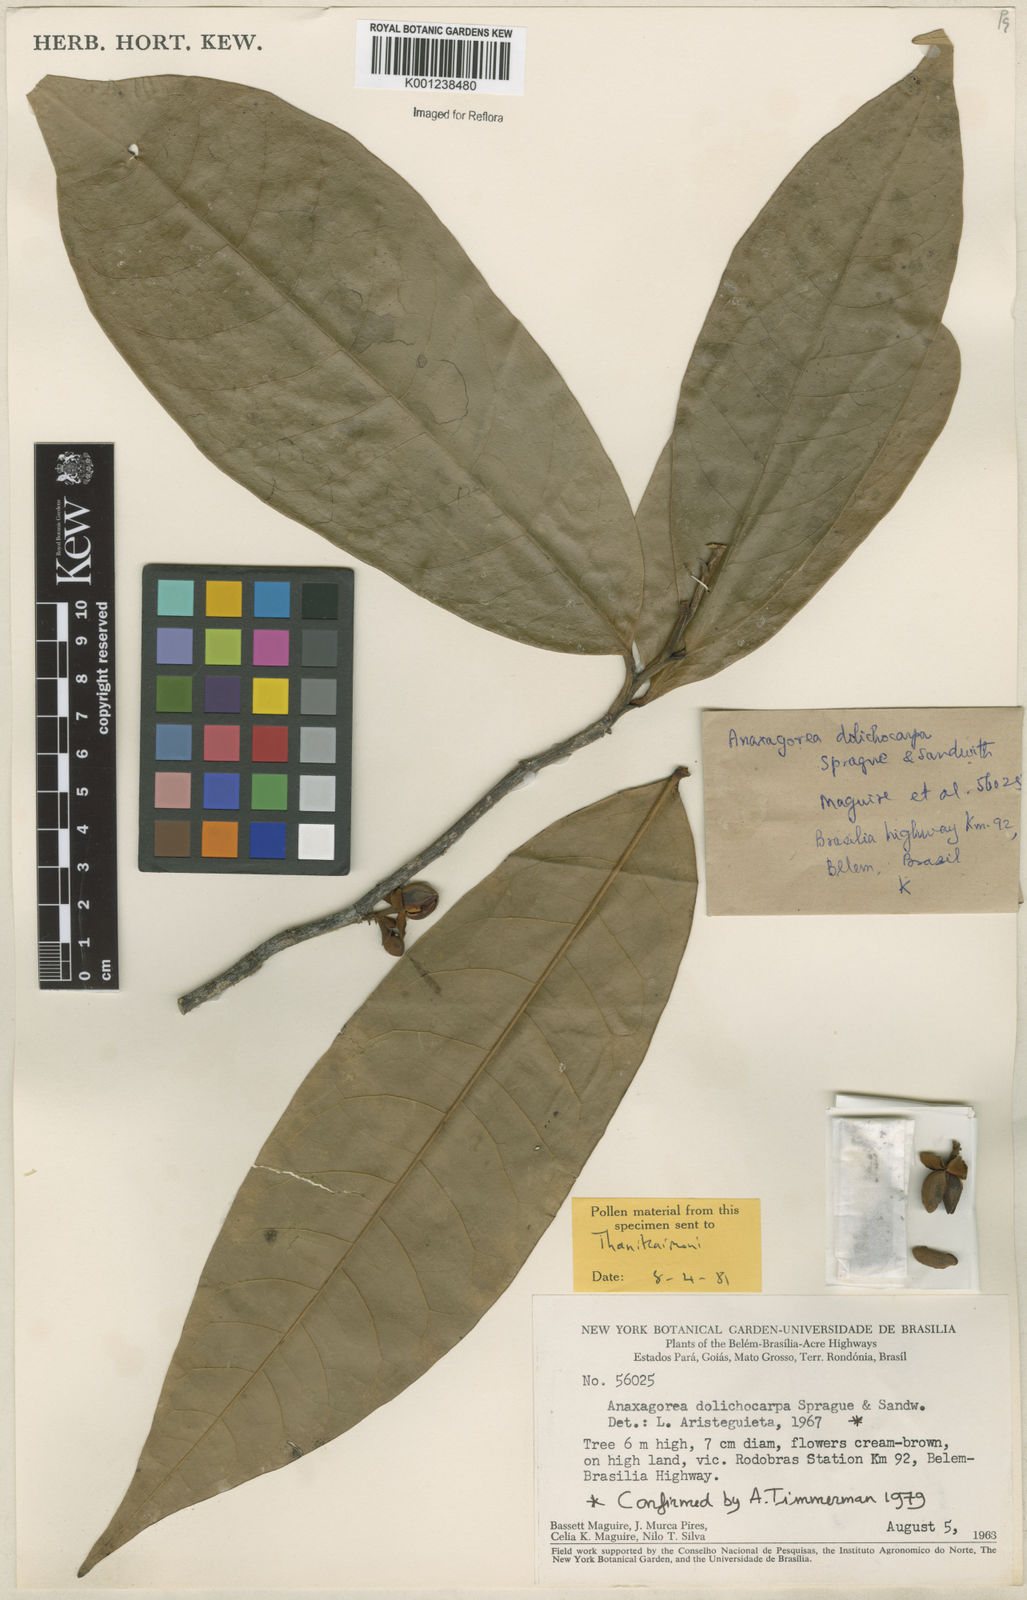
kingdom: Plantae
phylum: Tracheophyta
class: Magnoliopsida
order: Magnoliales
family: Annonaceae
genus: Anaxagorea
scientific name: Anaxagorea dolichocarpa
